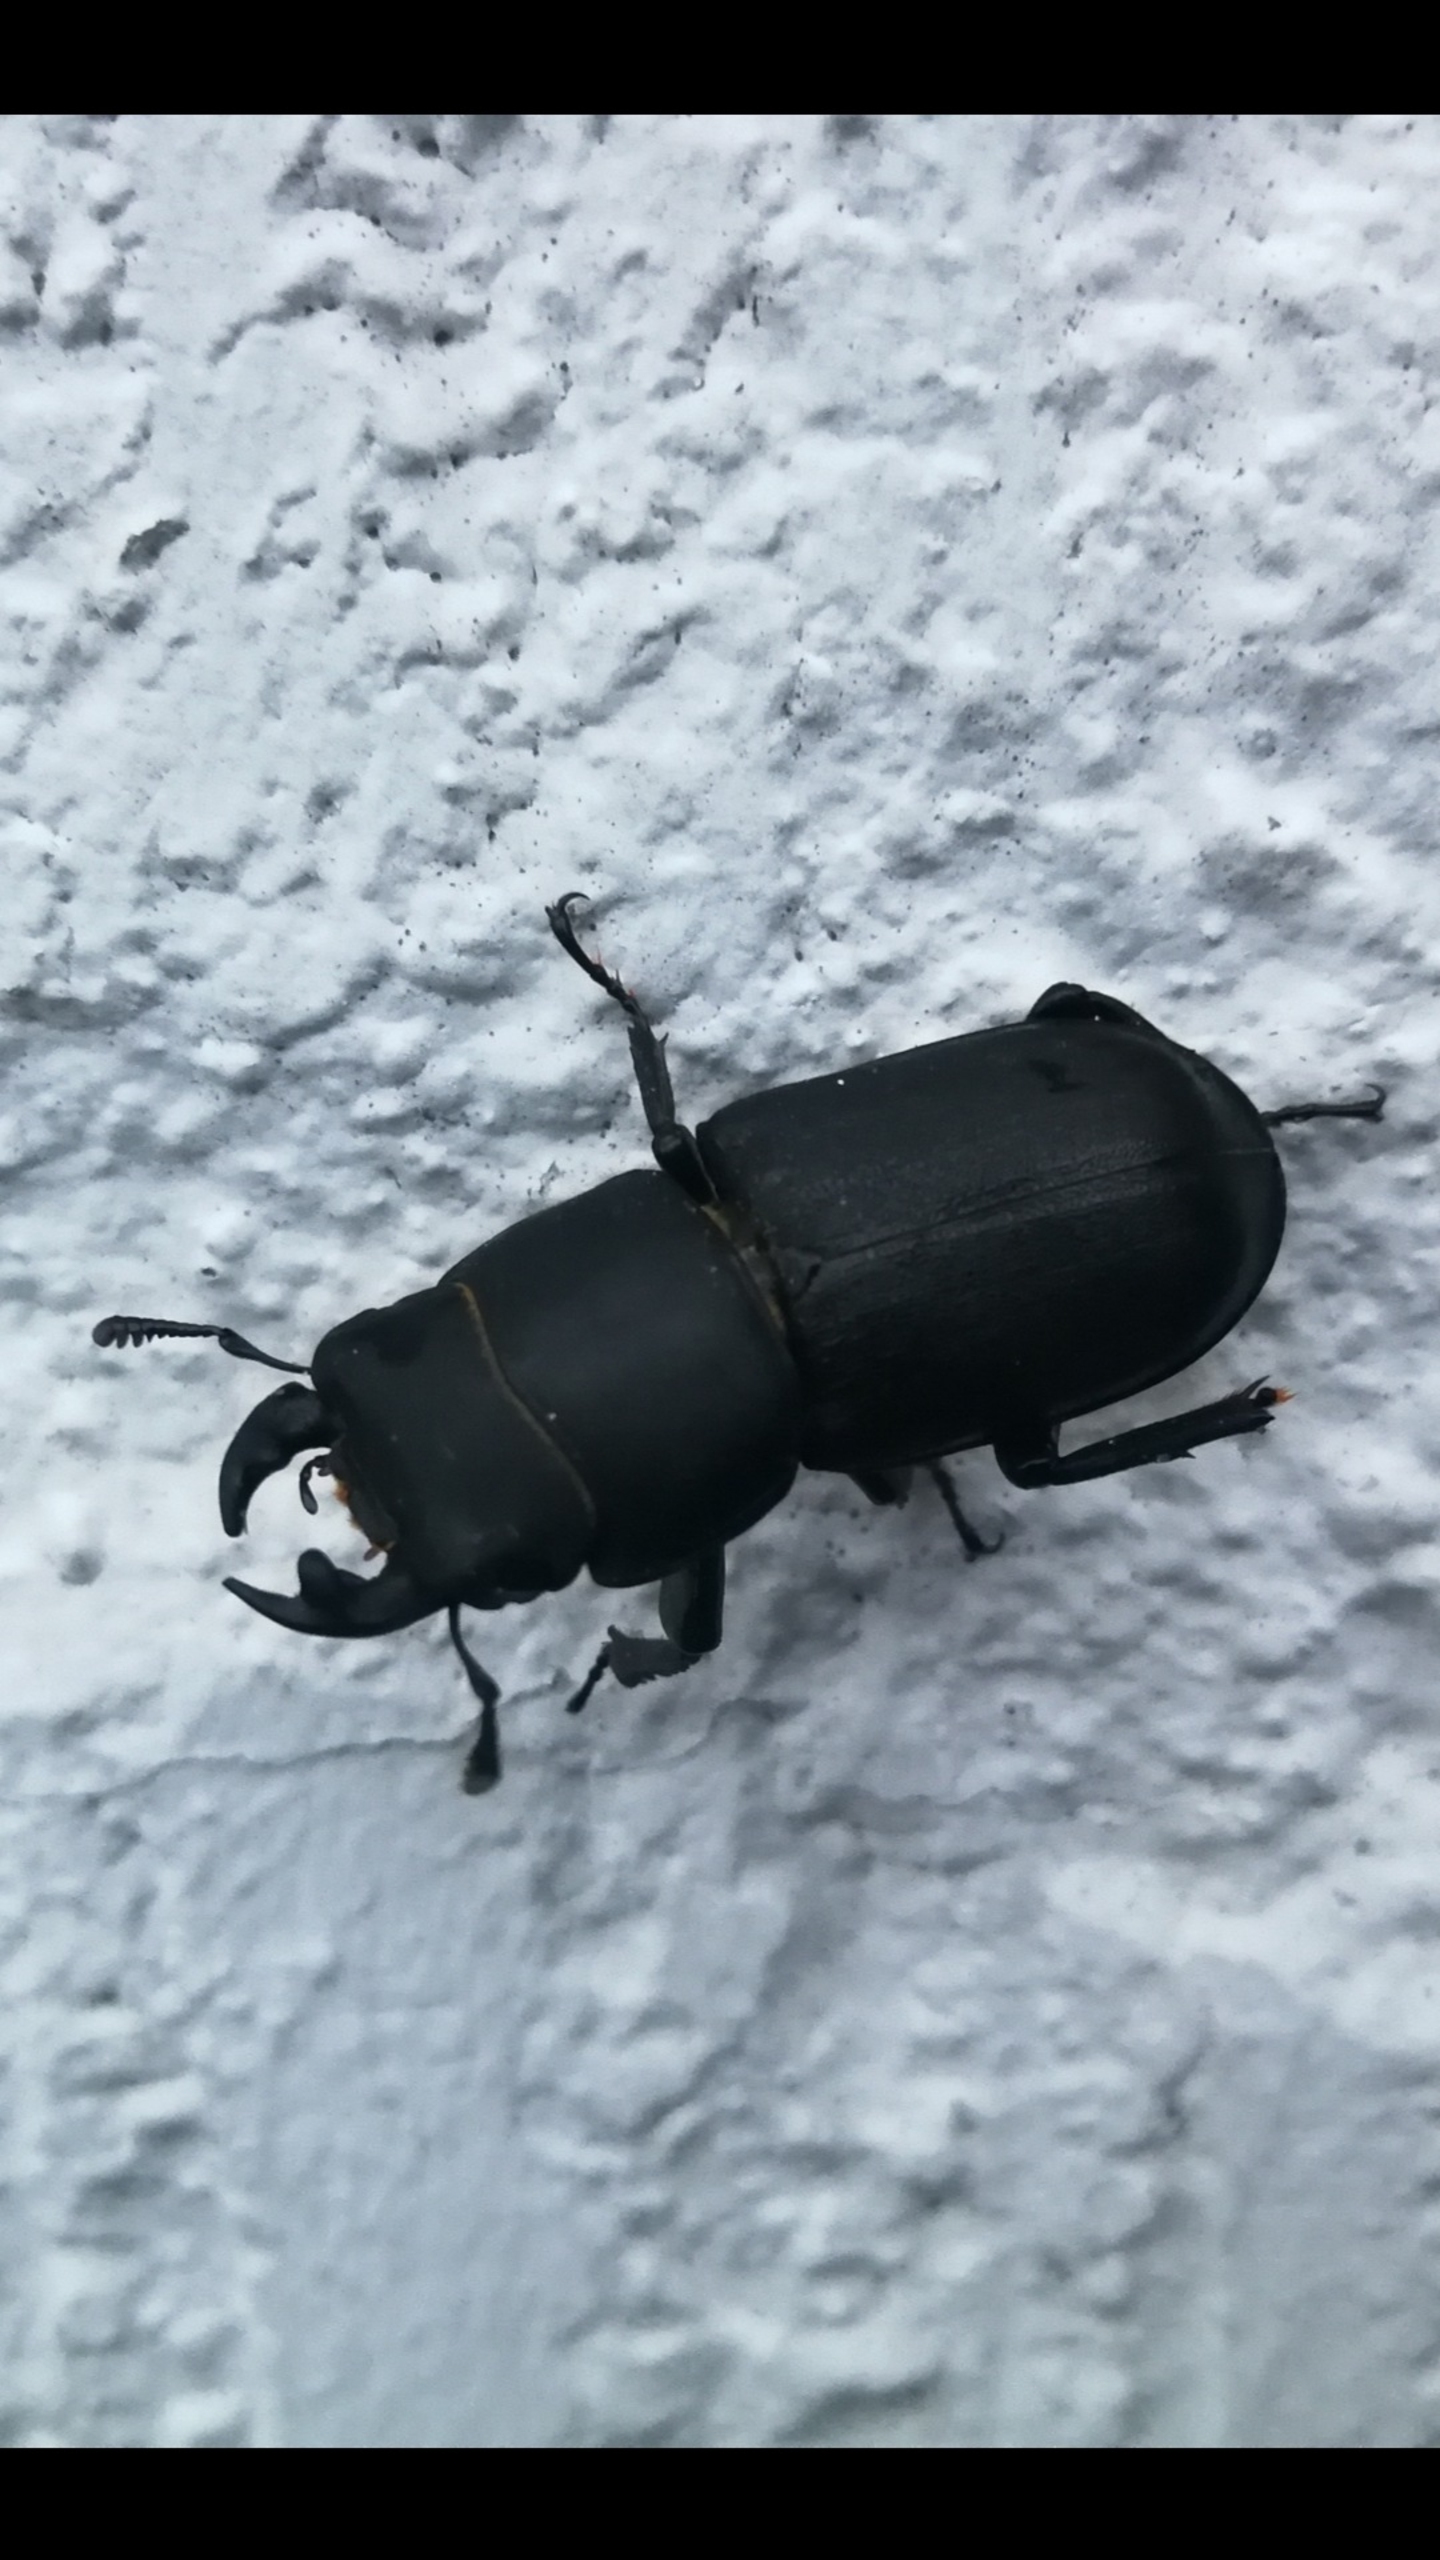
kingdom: Animalia
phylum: Arthropoda
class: Insecta
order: Coleoptera
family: Lucanidae
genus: Dorcus
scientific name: Dorcus parallelipipedus
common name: Bøghjort
